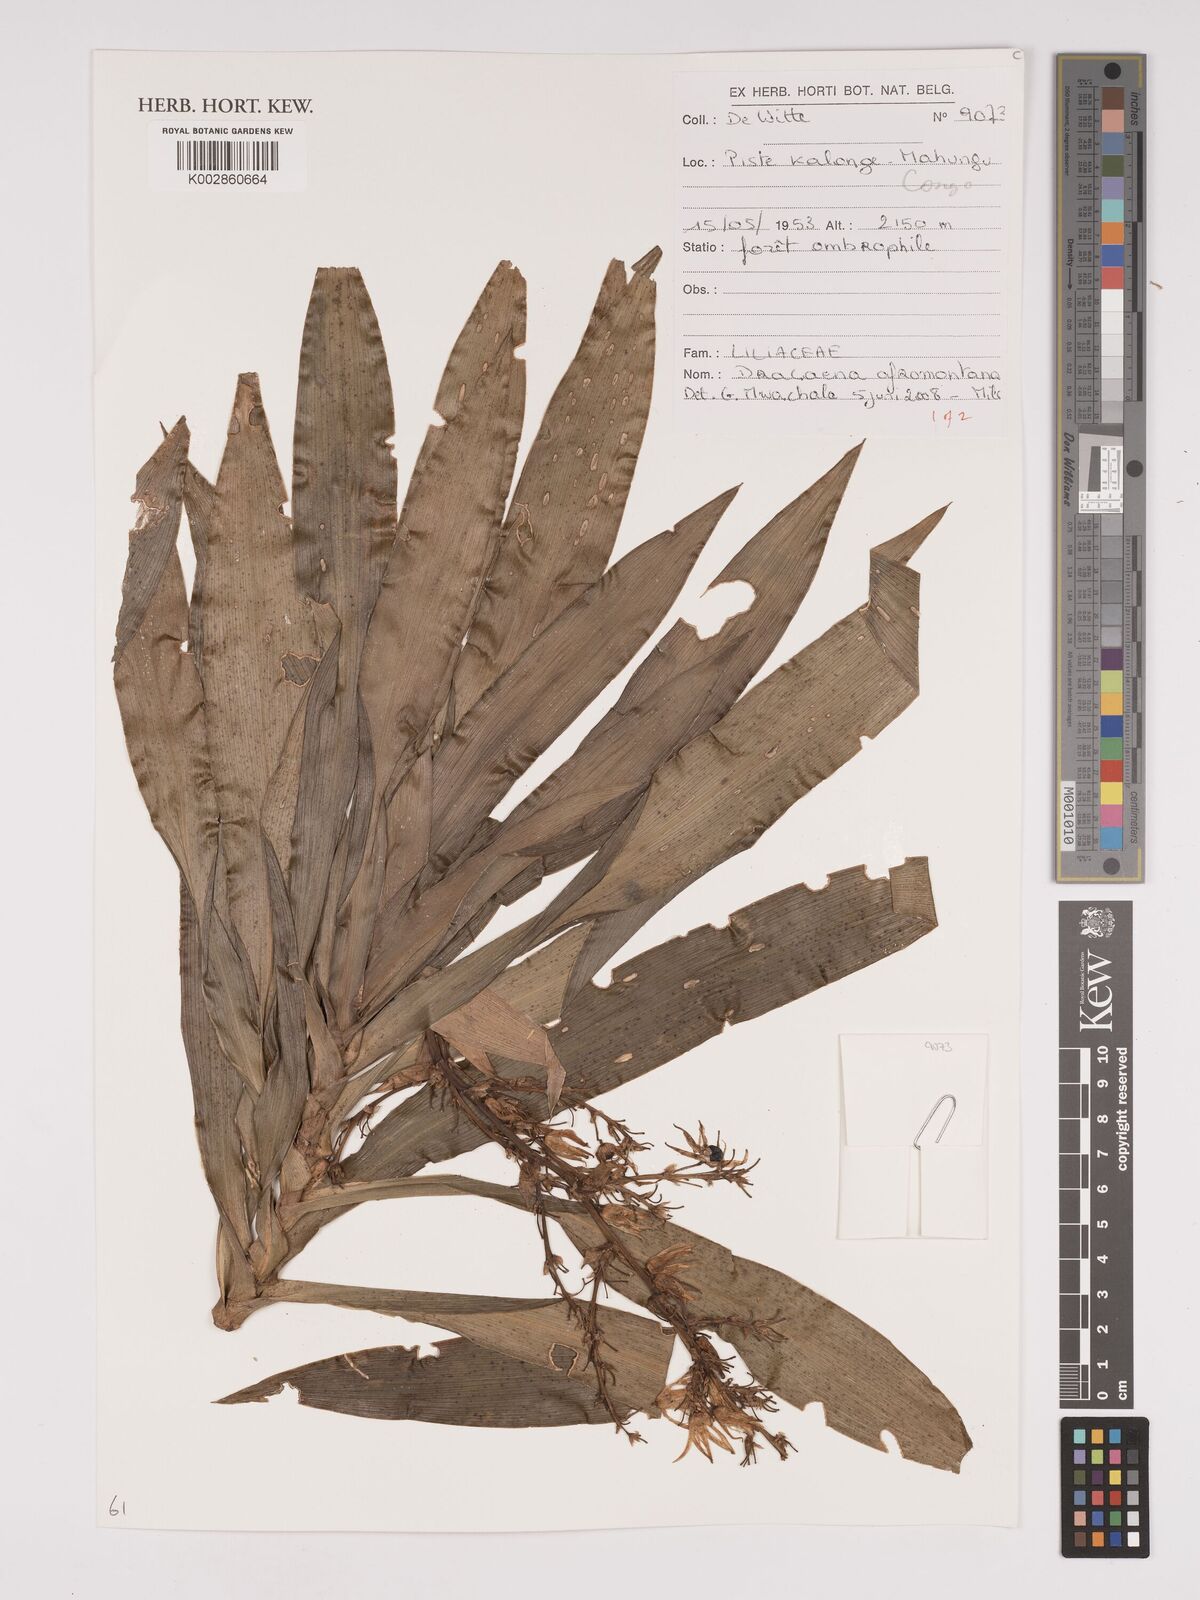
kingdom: Plantae
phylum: Tracheophyta
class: Liliopsida
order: Asparagales
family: Asparagaceae
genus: Dracaena
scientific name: Dracaena afromontana
